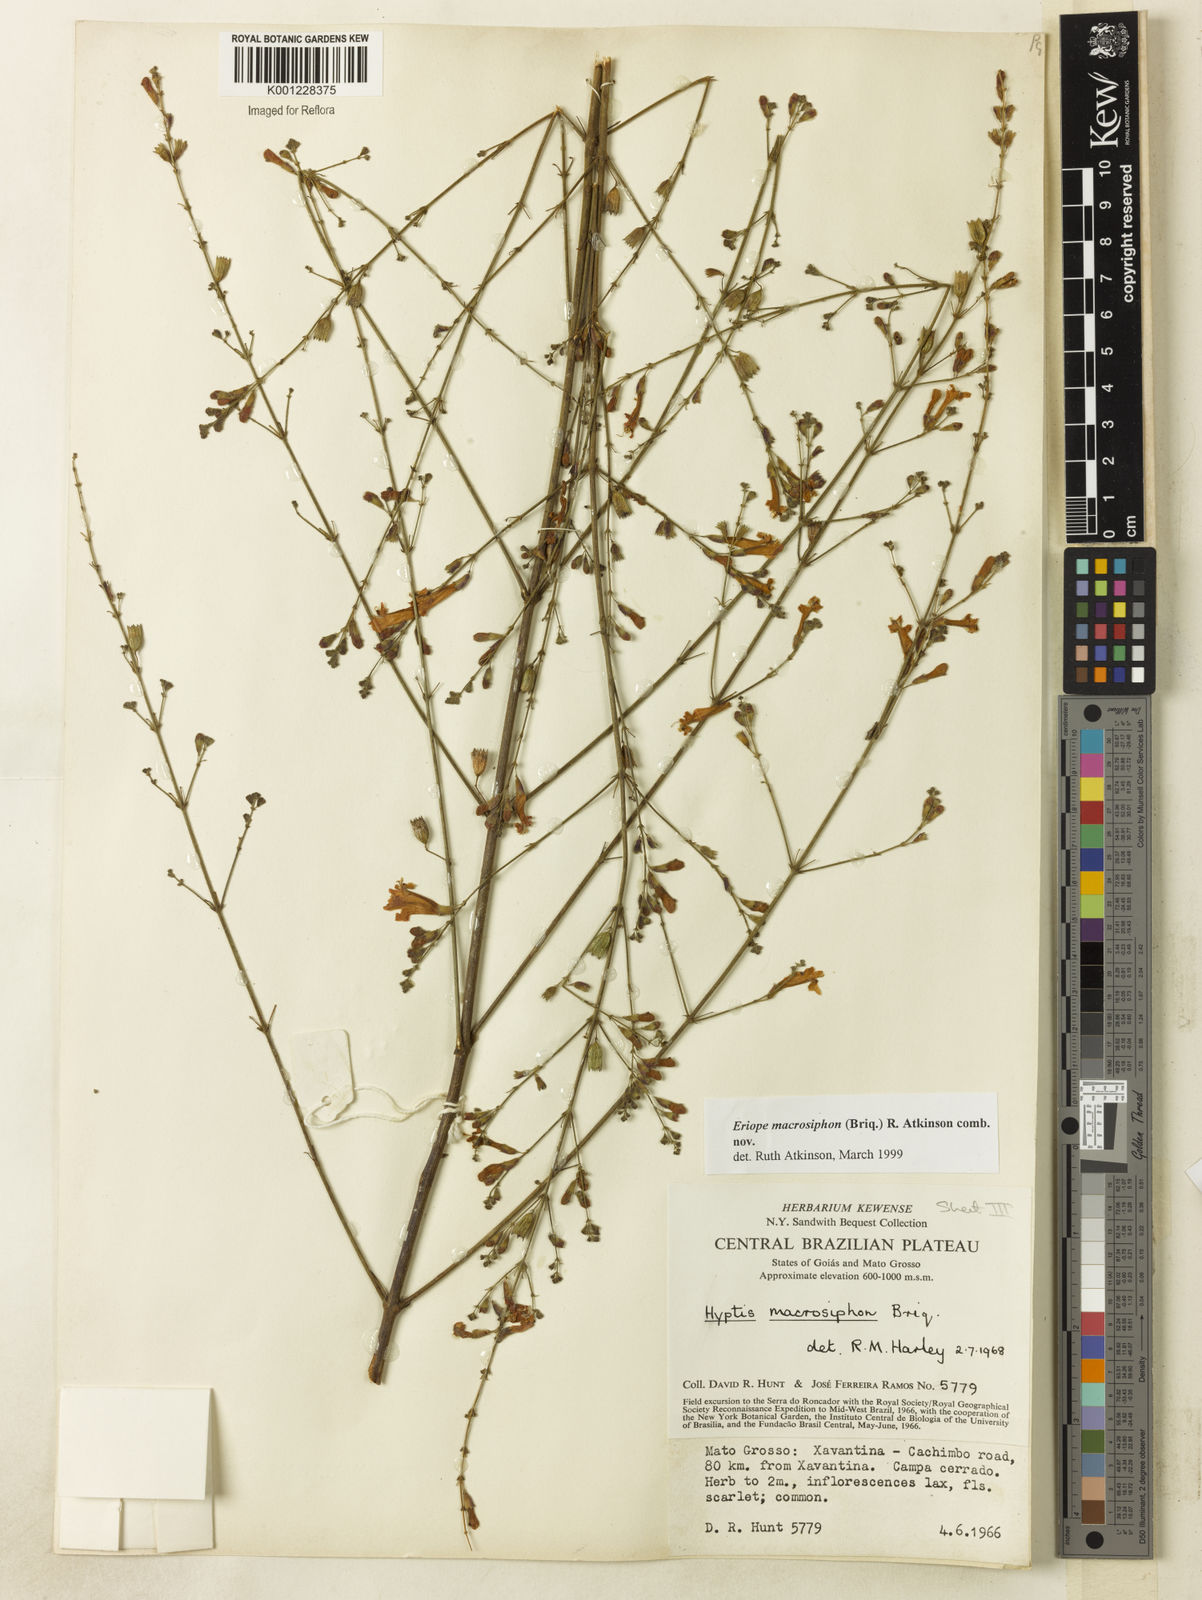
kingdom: Plantae
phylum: Tracheophyta
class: Magnoliopsida
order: Lamiales
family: Lamiaceae
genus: Hypenia
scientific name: Hypenia macrosiphon
